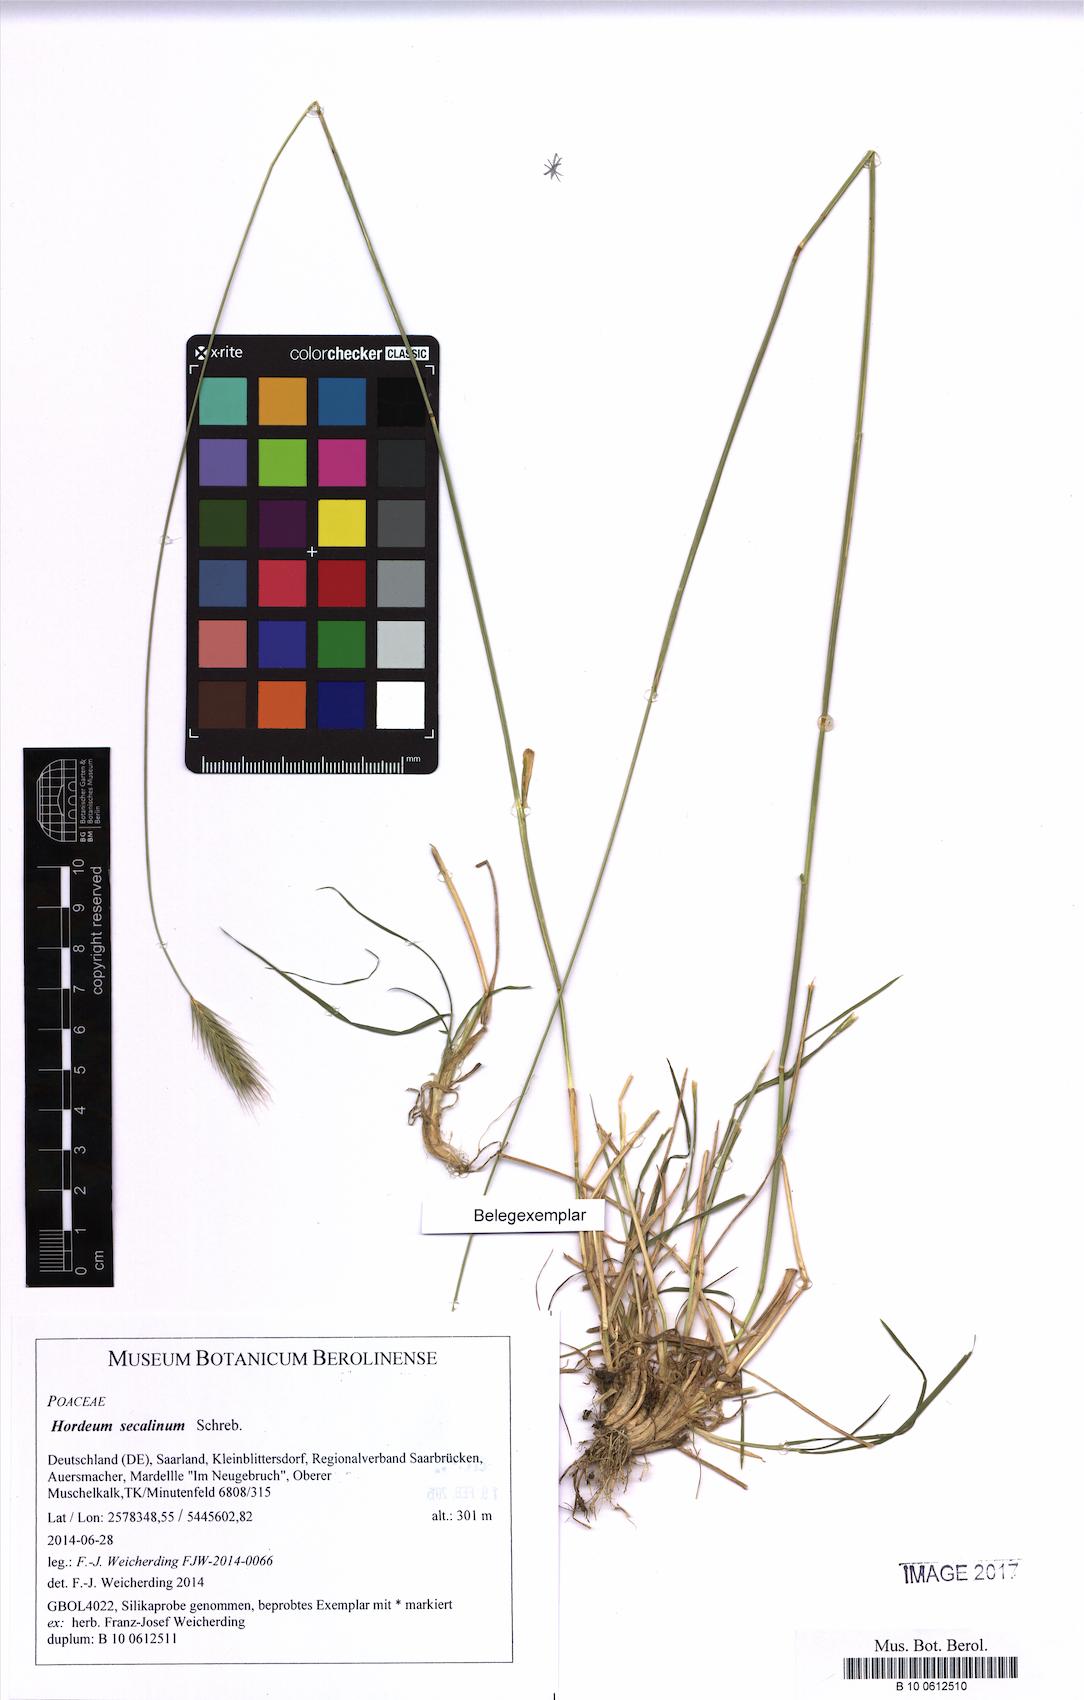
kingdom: Plantae
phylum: Tracheophyta
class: Liliopsida
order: Poales
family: Poaceae
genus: Hordeum
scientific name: Hordeum secalinum
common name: Meadow barley
